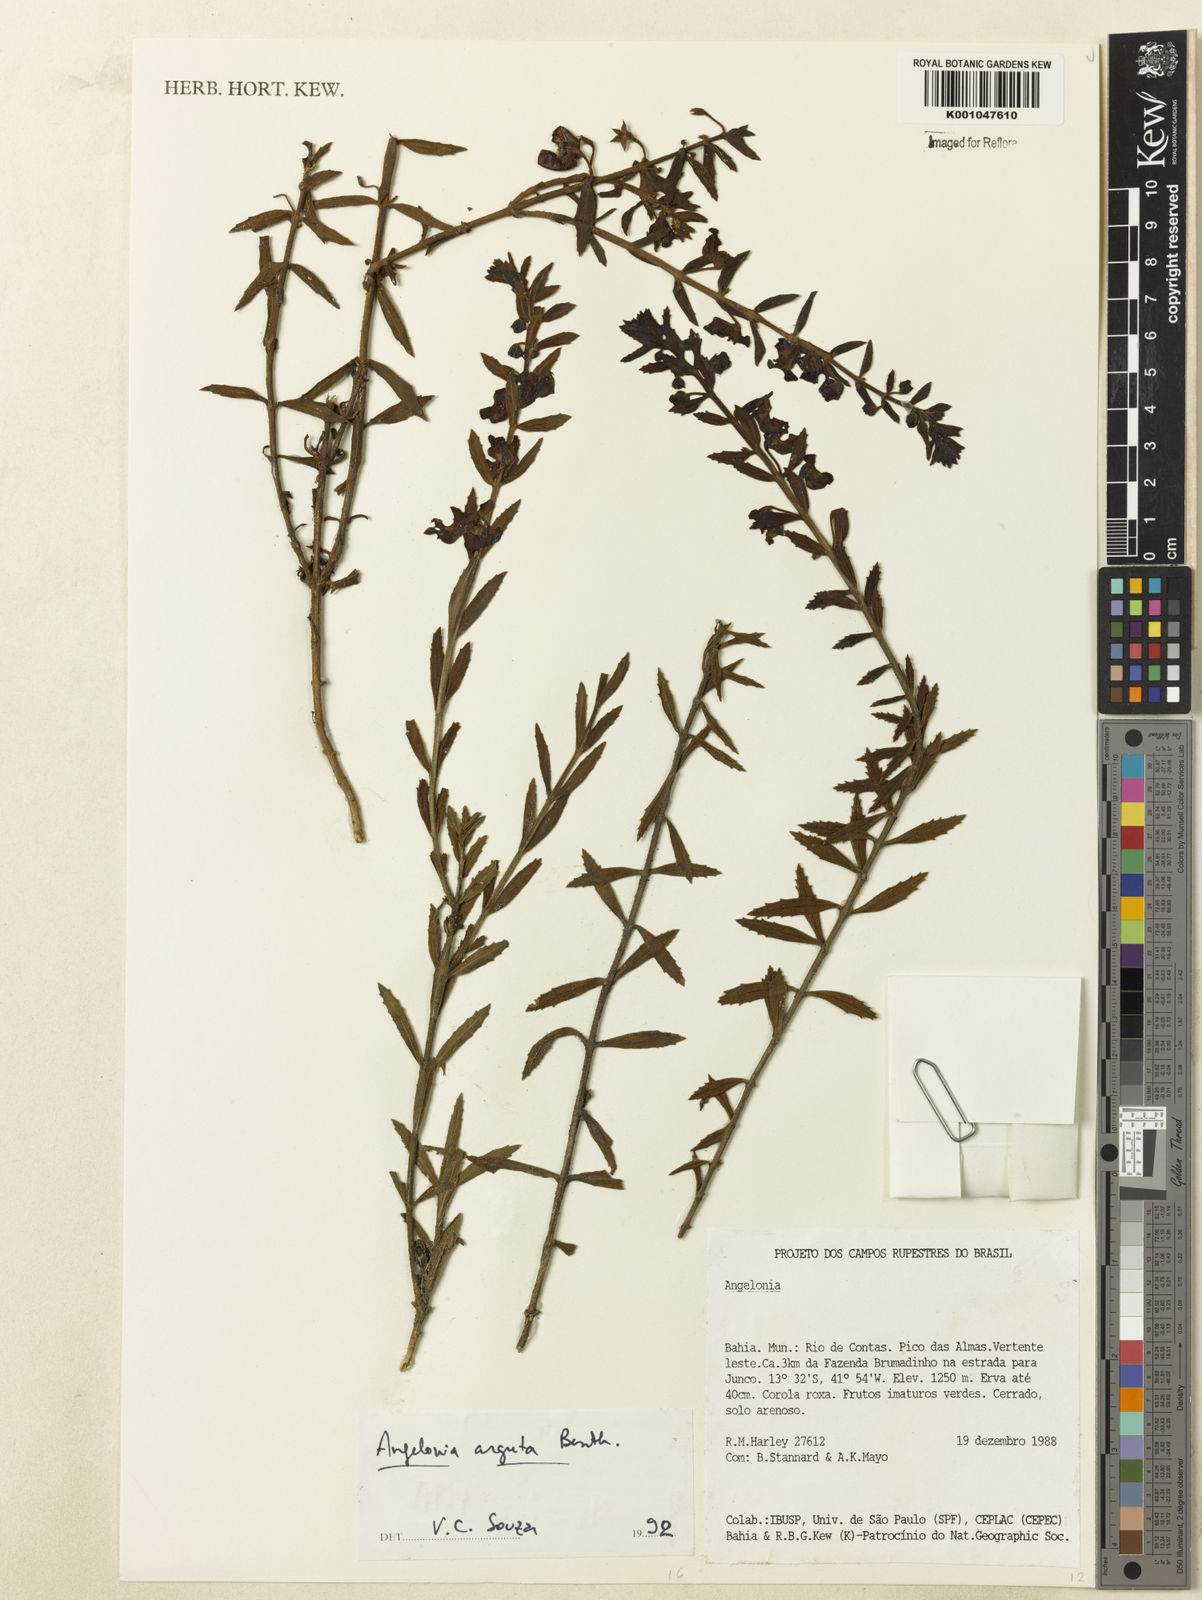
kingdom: Plantae
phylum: Tracheophyta
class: Magnoliopsida
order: Lamiales
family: Plantaginaceae
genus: Angelonia
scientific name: Angelonia arguta
